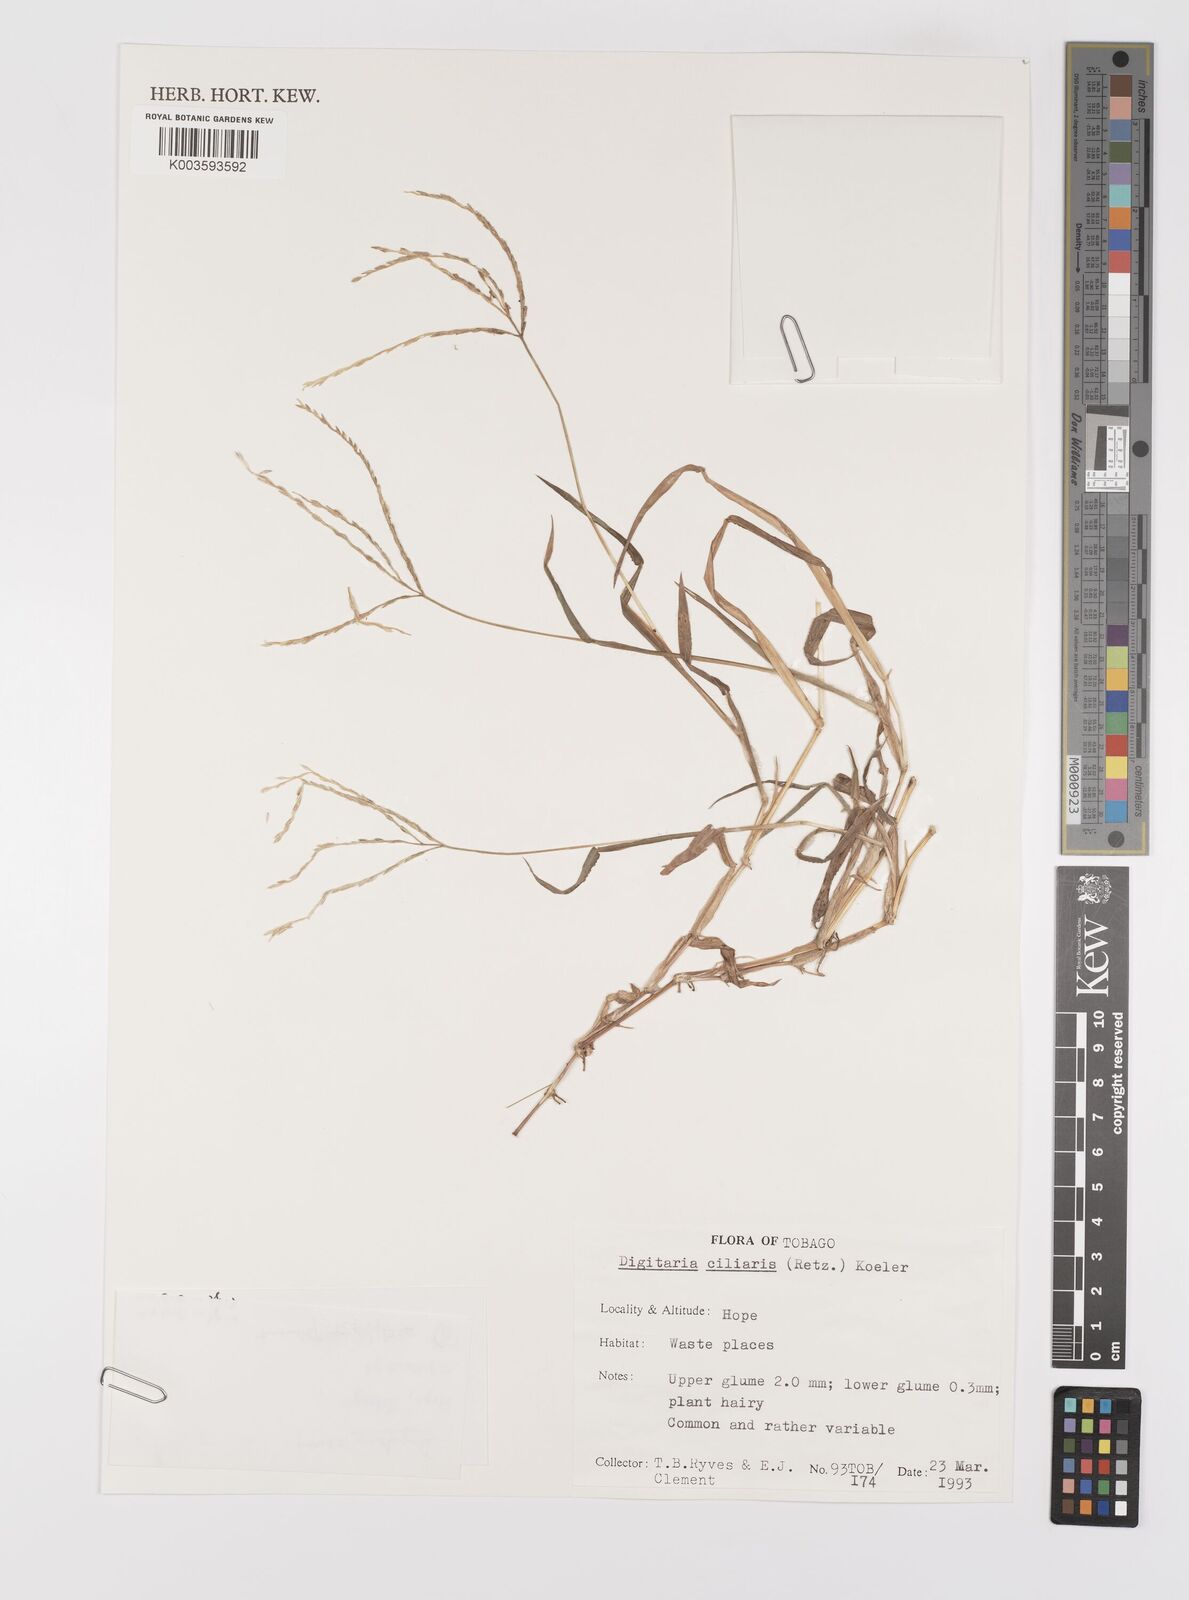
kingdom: Plantae
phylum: Tracheophyta
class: Liliopsida
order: Poales
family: Poaceae
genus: Digitaria
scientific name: Digitaria ciliaris
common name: Tropical finger-grass
